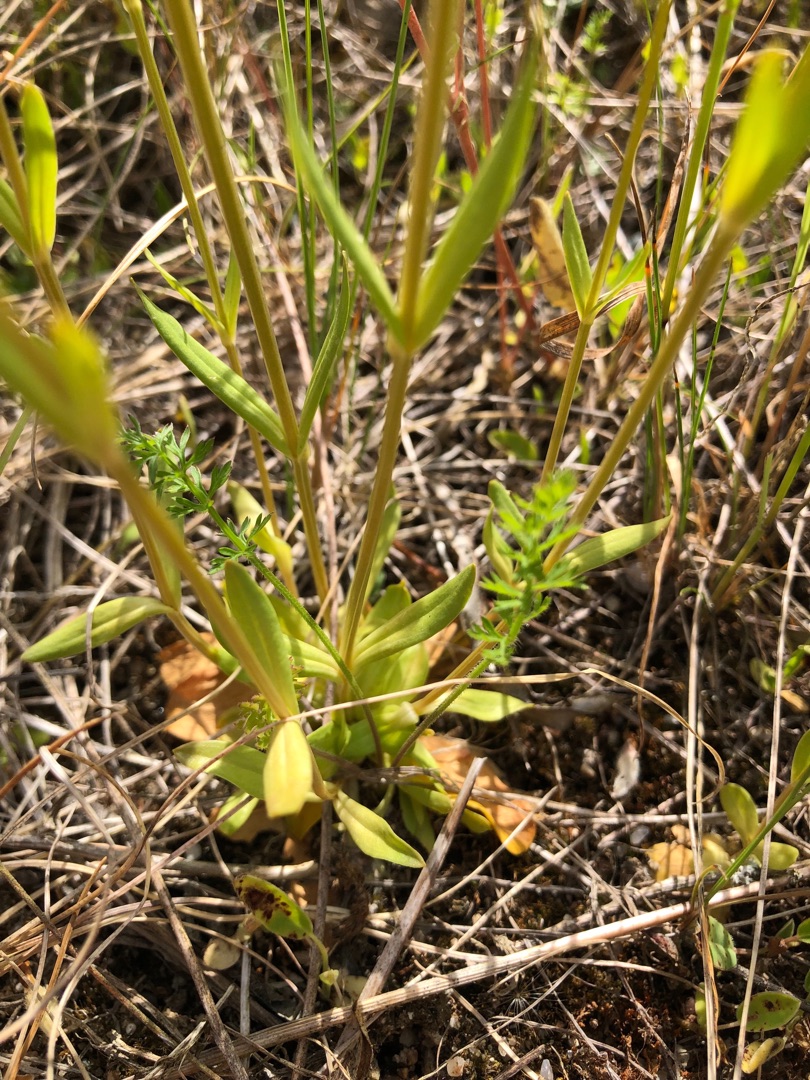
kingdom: Plantae
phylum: Tracheophyta
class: Magnoliopsida
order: Gentianales
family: Gentianaceae
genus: Centaurium
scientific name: Centaurium erythraea
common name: Mark-tusindgylden
